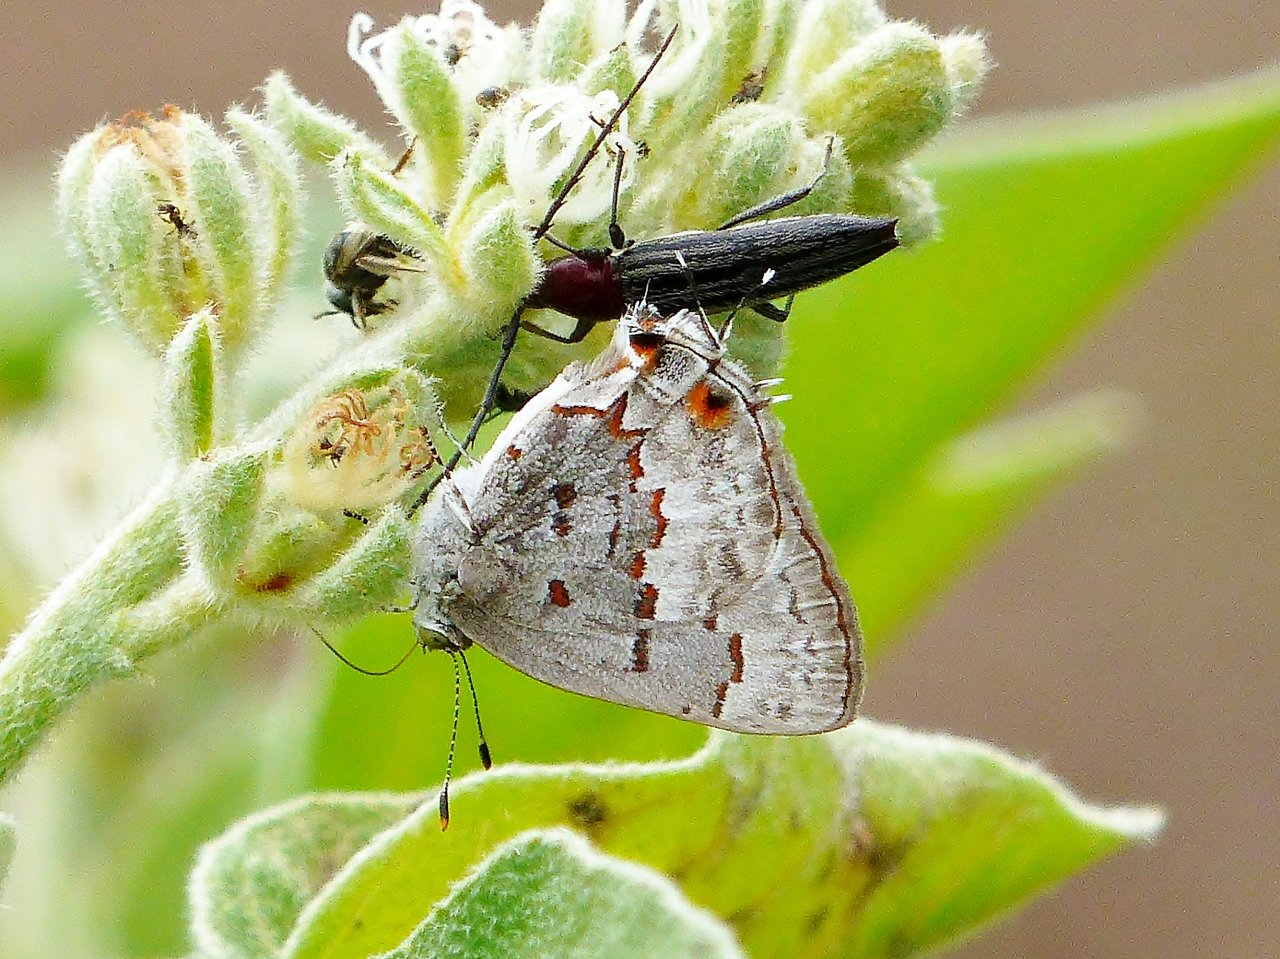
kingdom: Animalia
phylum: Arthropoda
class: Insecta
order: Lepidoptera
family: Lycaenidae
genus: Ministrymon
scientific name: Ministrymon clytie
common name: Clytie Ministreak
